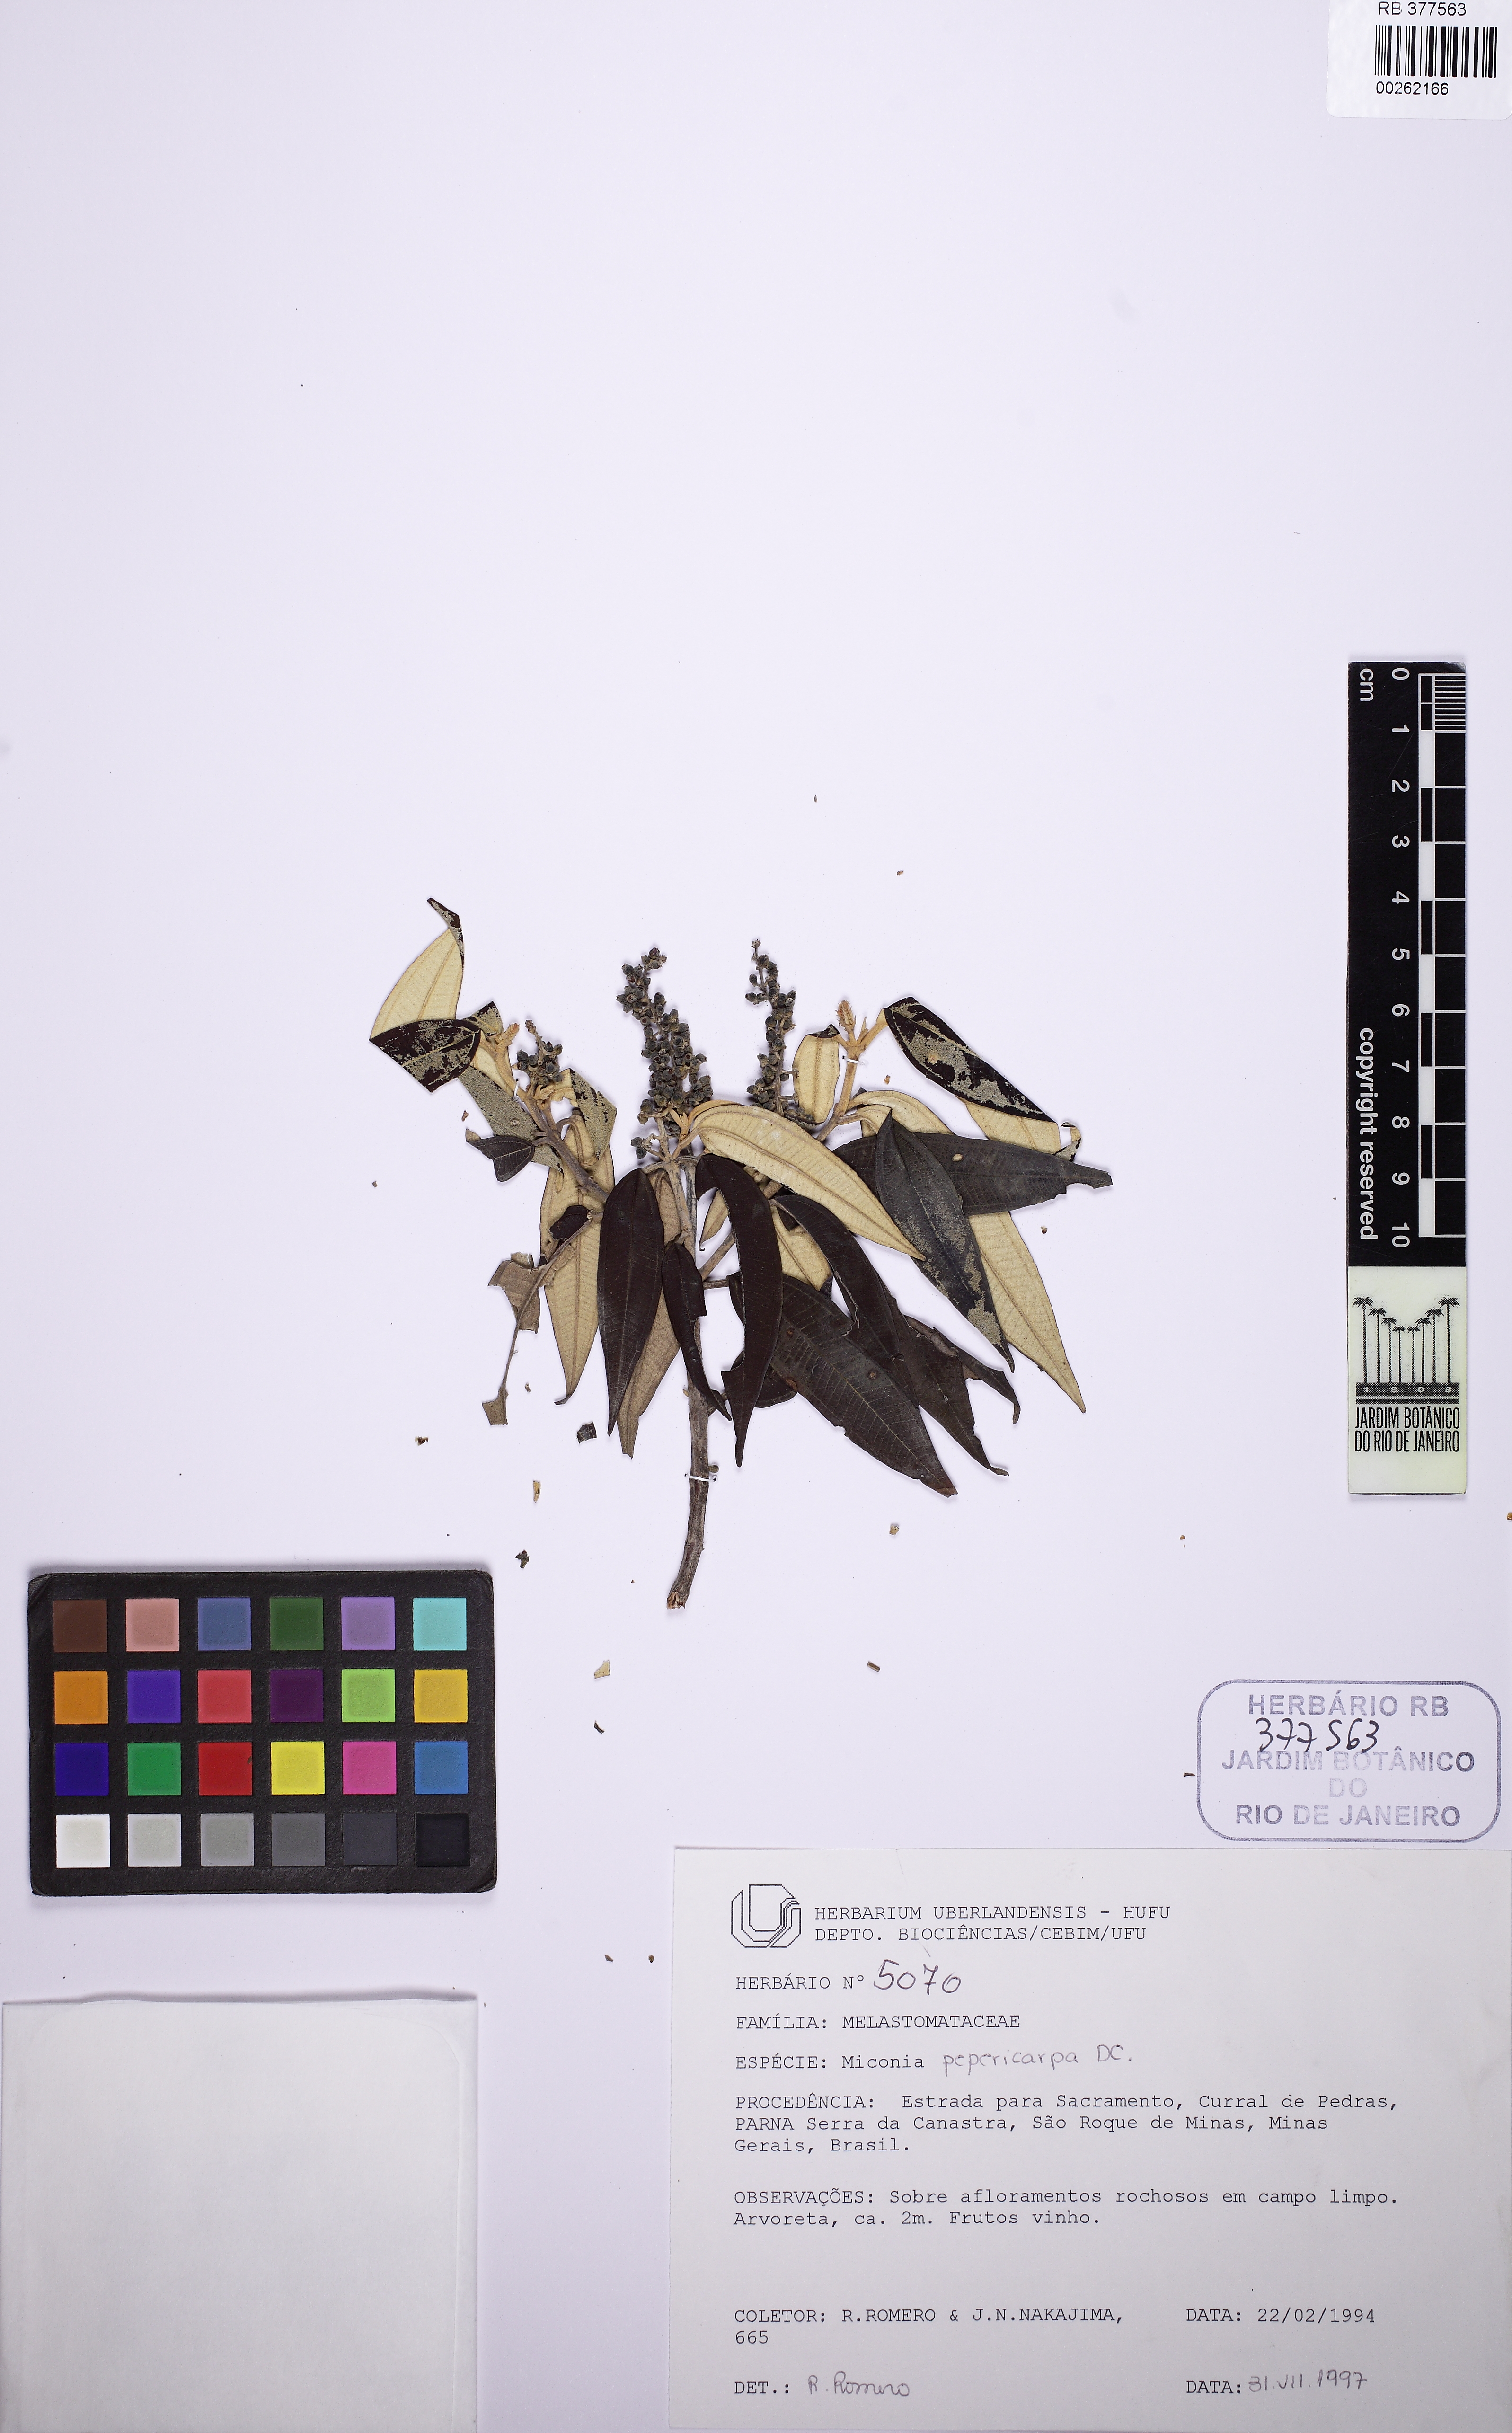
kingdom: Plantae
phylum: Tracheophyta
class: Magnoliopsida
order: Myrtales
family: Melastomataceae
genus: Miconia
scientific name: Miconia pepericarpa
